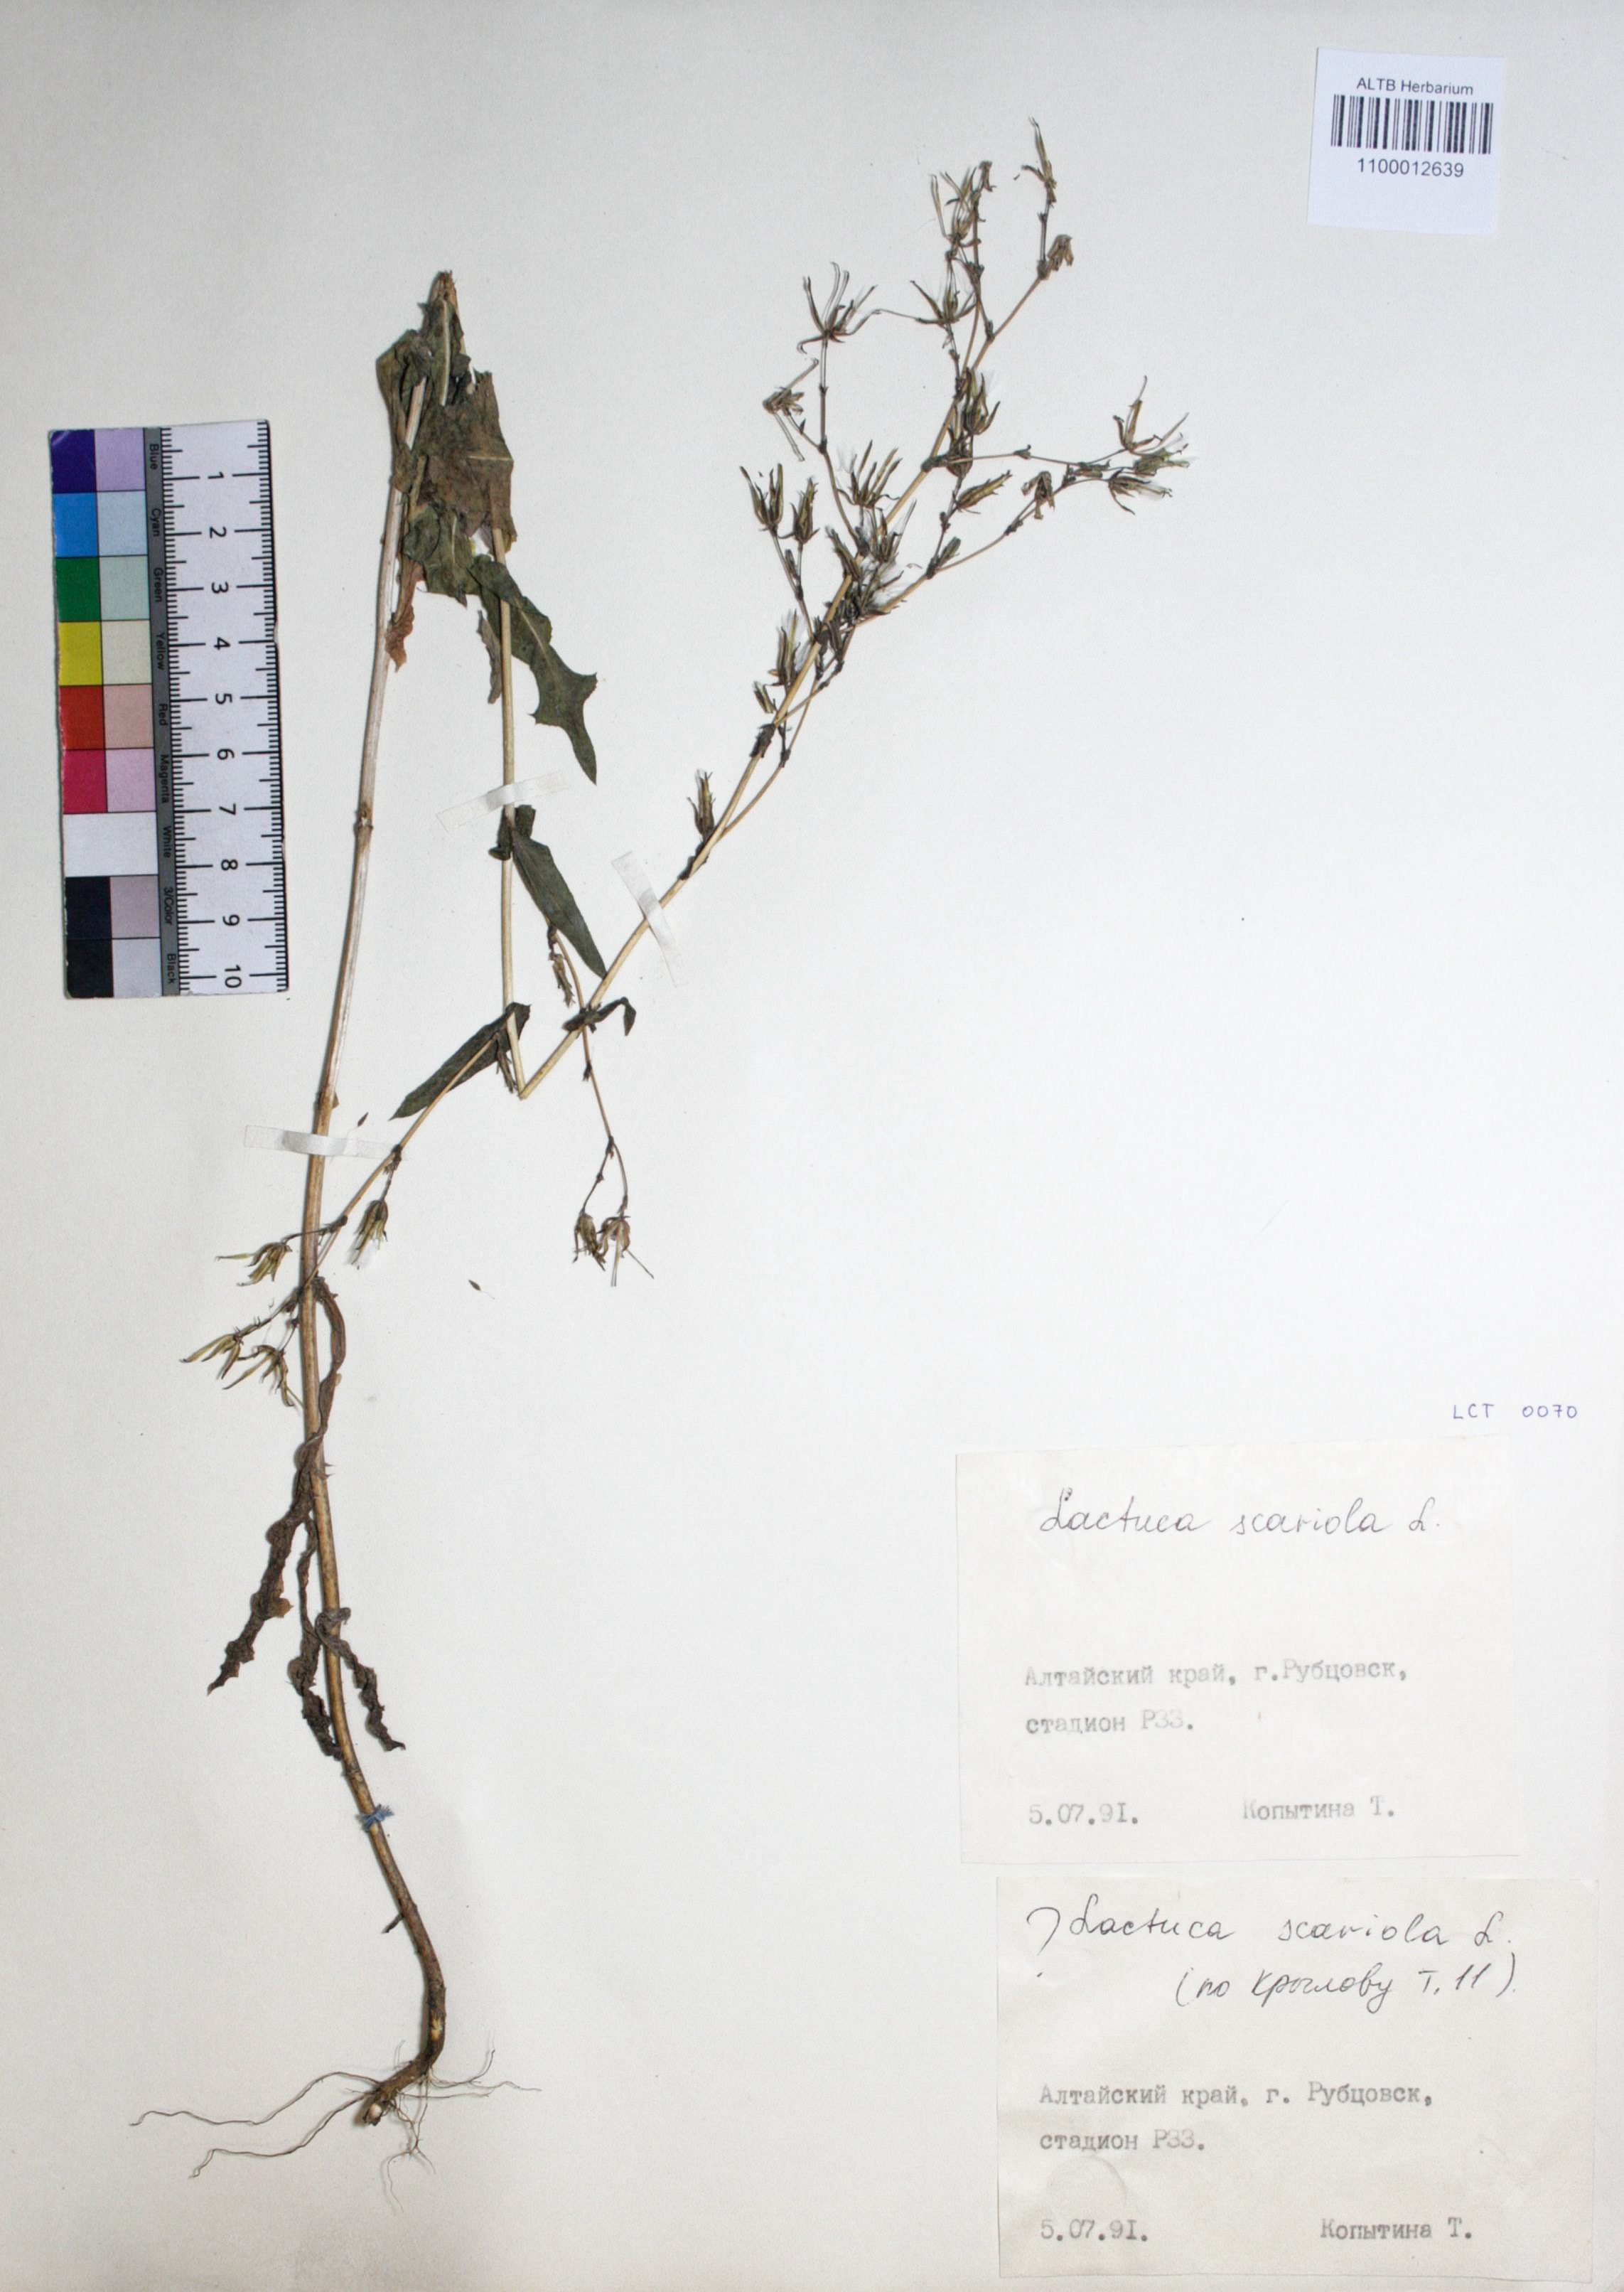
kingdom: Plantae
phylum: Tracheophyta
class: Magnoliopsida
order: Asterales
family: Asteraceae
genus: Lactuca
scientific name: Lactuca serriola
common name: Prickly lettuce
